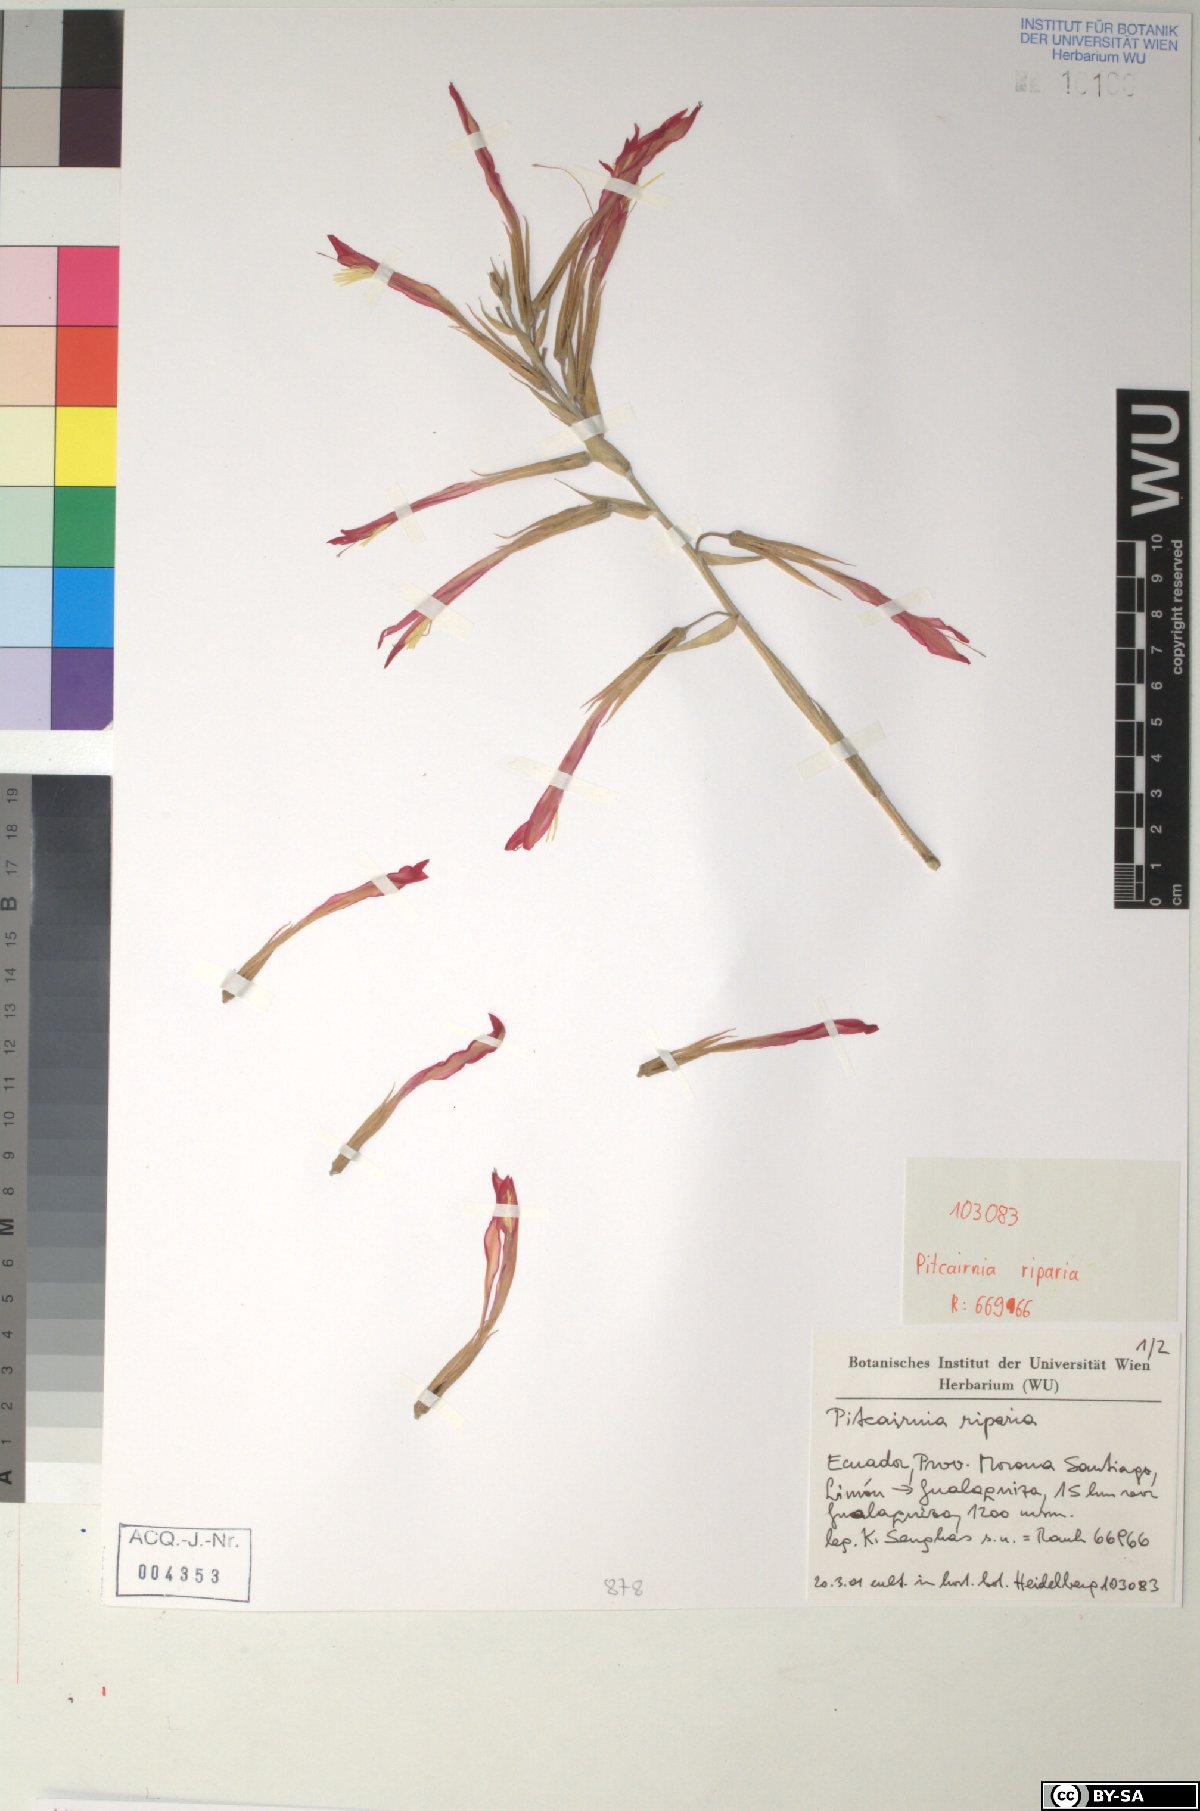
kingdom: Plantae
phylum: Tracheophyta
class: Liliopsida
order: Poales
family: Bromeliaceae
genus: Pitcairnia
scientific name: Pitcairnia riparia
